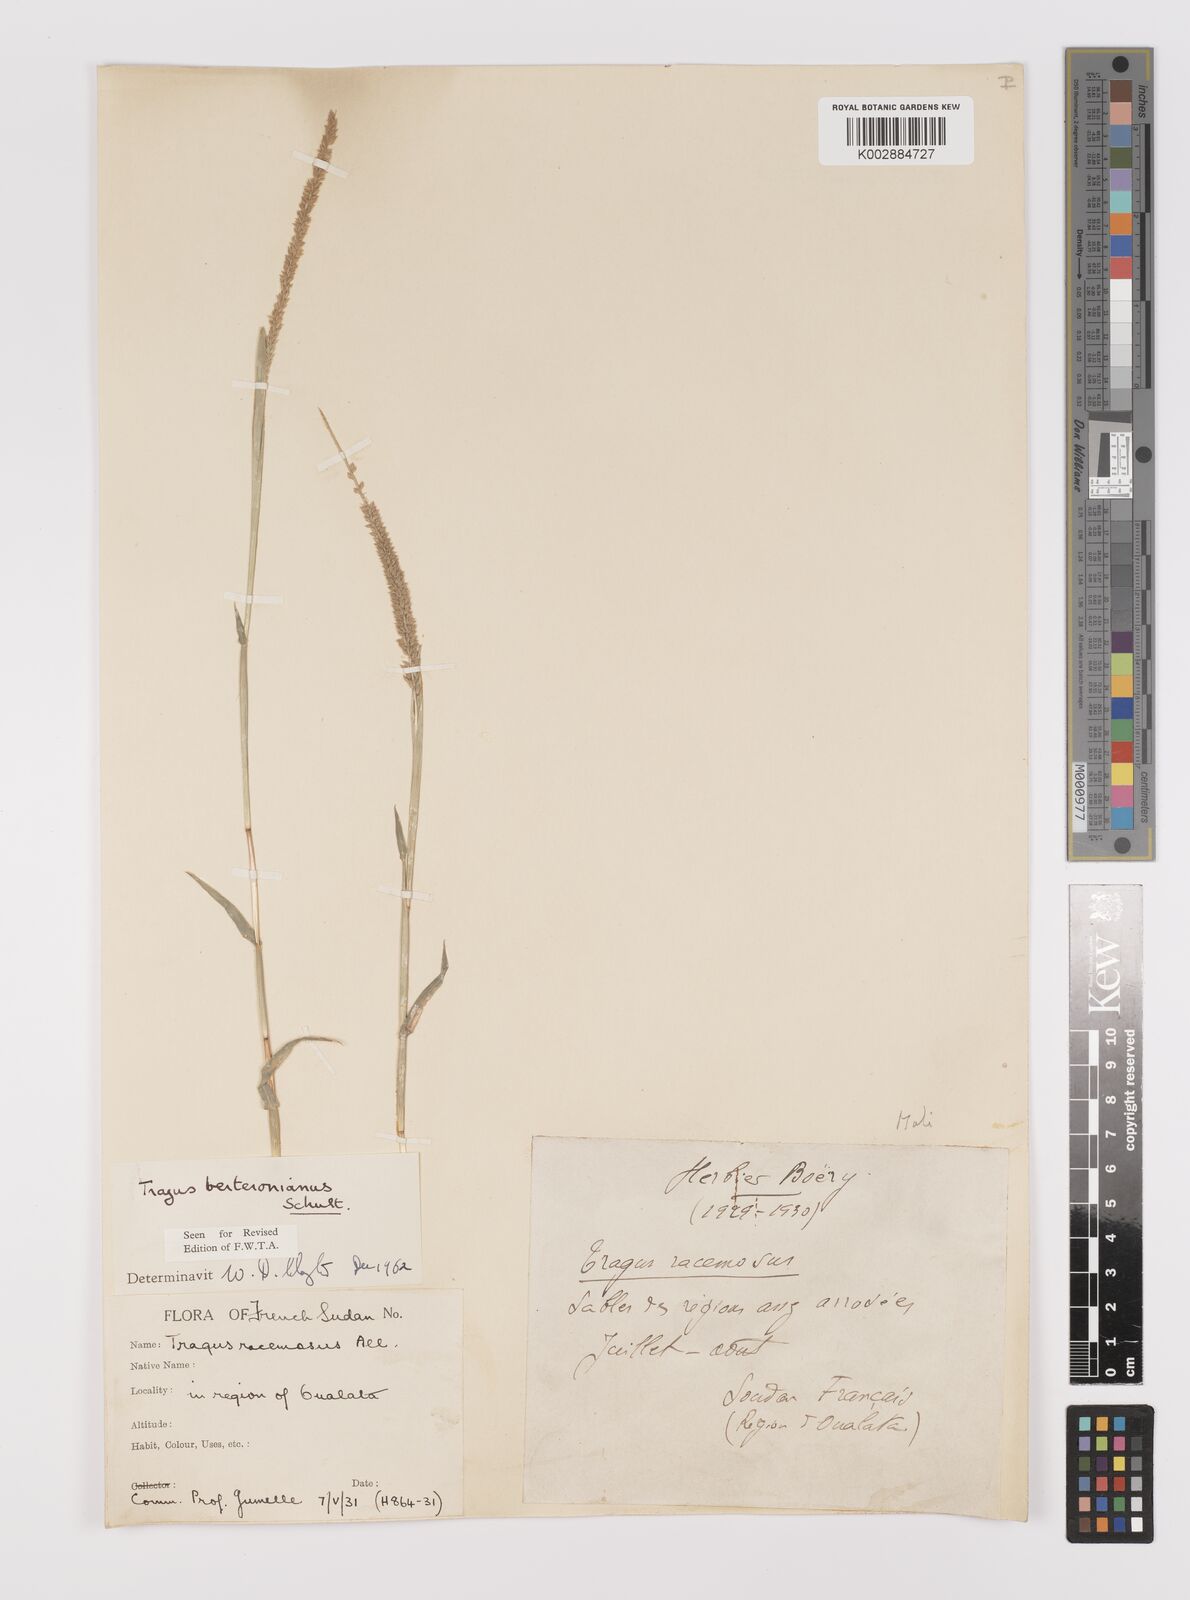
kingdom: Plantae
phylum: Tracheophyta
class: Liliopsida
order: Poales
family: Poaceae
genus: Tragus
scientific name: Tragus berteronianus
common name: African bur-grass
